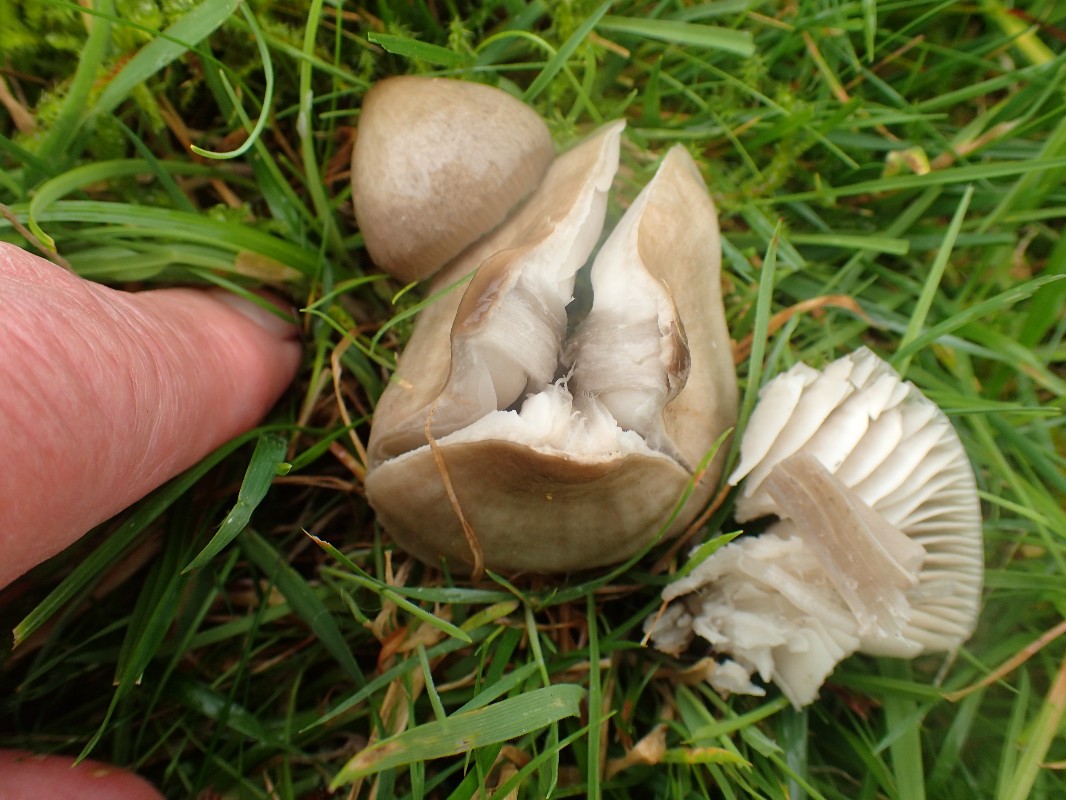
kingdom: Fungi
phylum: Basidiomycota
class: Agaricomycetes
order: Agaricales
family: Hygrophoraceae
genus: Gliophorus
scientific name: Gliophorus irrigatus
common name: slimet vokshat
